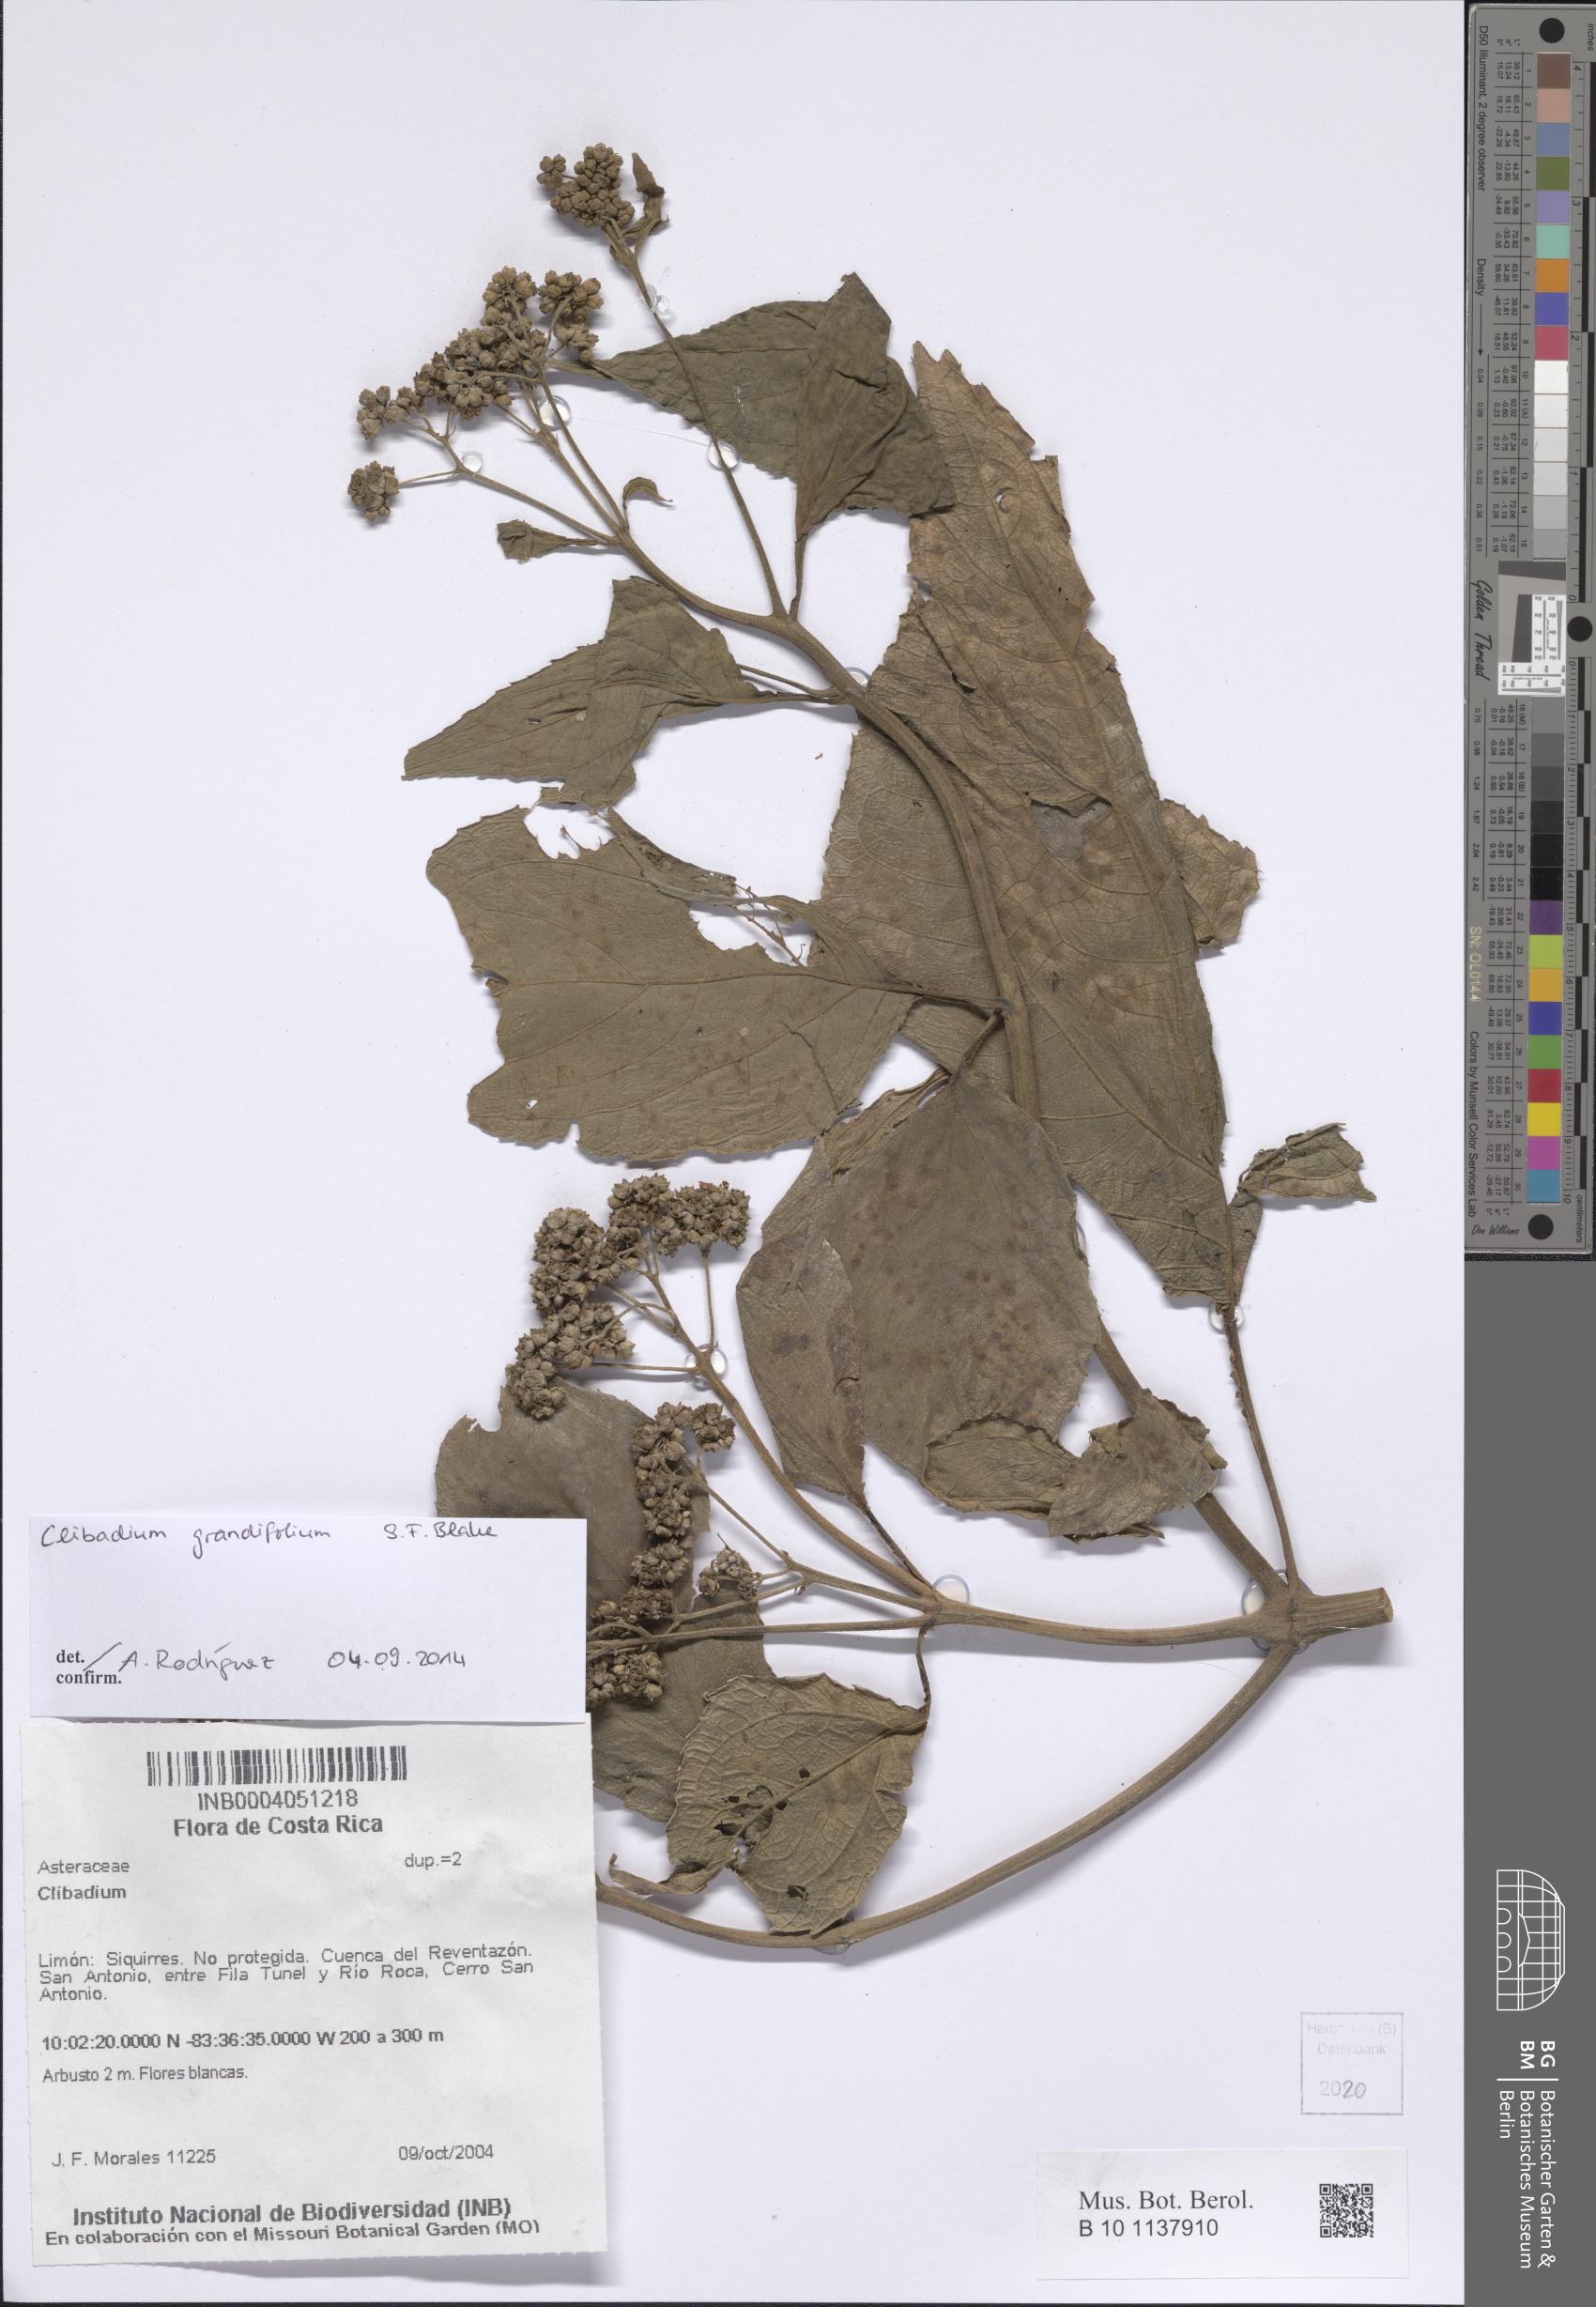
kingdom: Plantae
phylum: Tracheophyta
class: Magnoliopsida
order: Asterales
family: Asteraceae
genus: Clibadium
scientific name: Clibadium grandifolium
